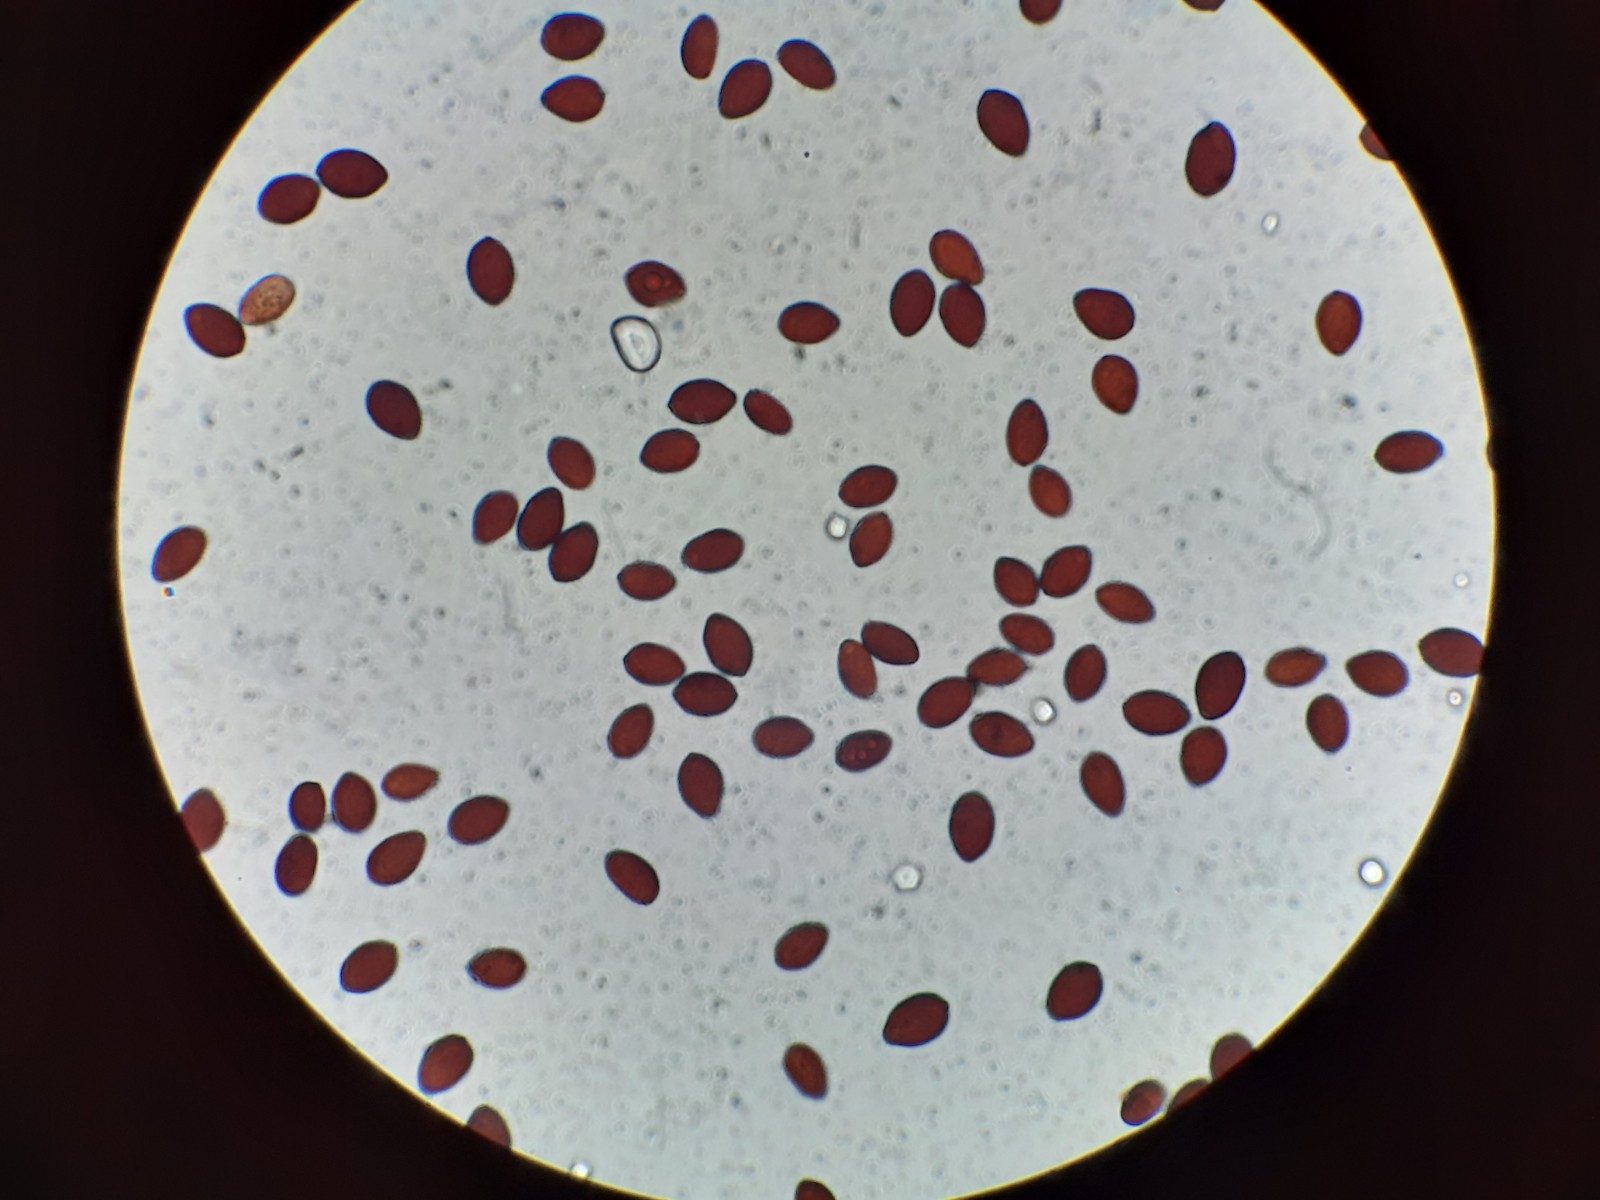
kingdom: Fungi
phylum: Basidiomycota
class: Agaricomycetes
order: Agaricales
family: Psathyrellaceae
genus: Parasola
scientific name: Parasola plicatilis
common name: plæne-hjulhat
